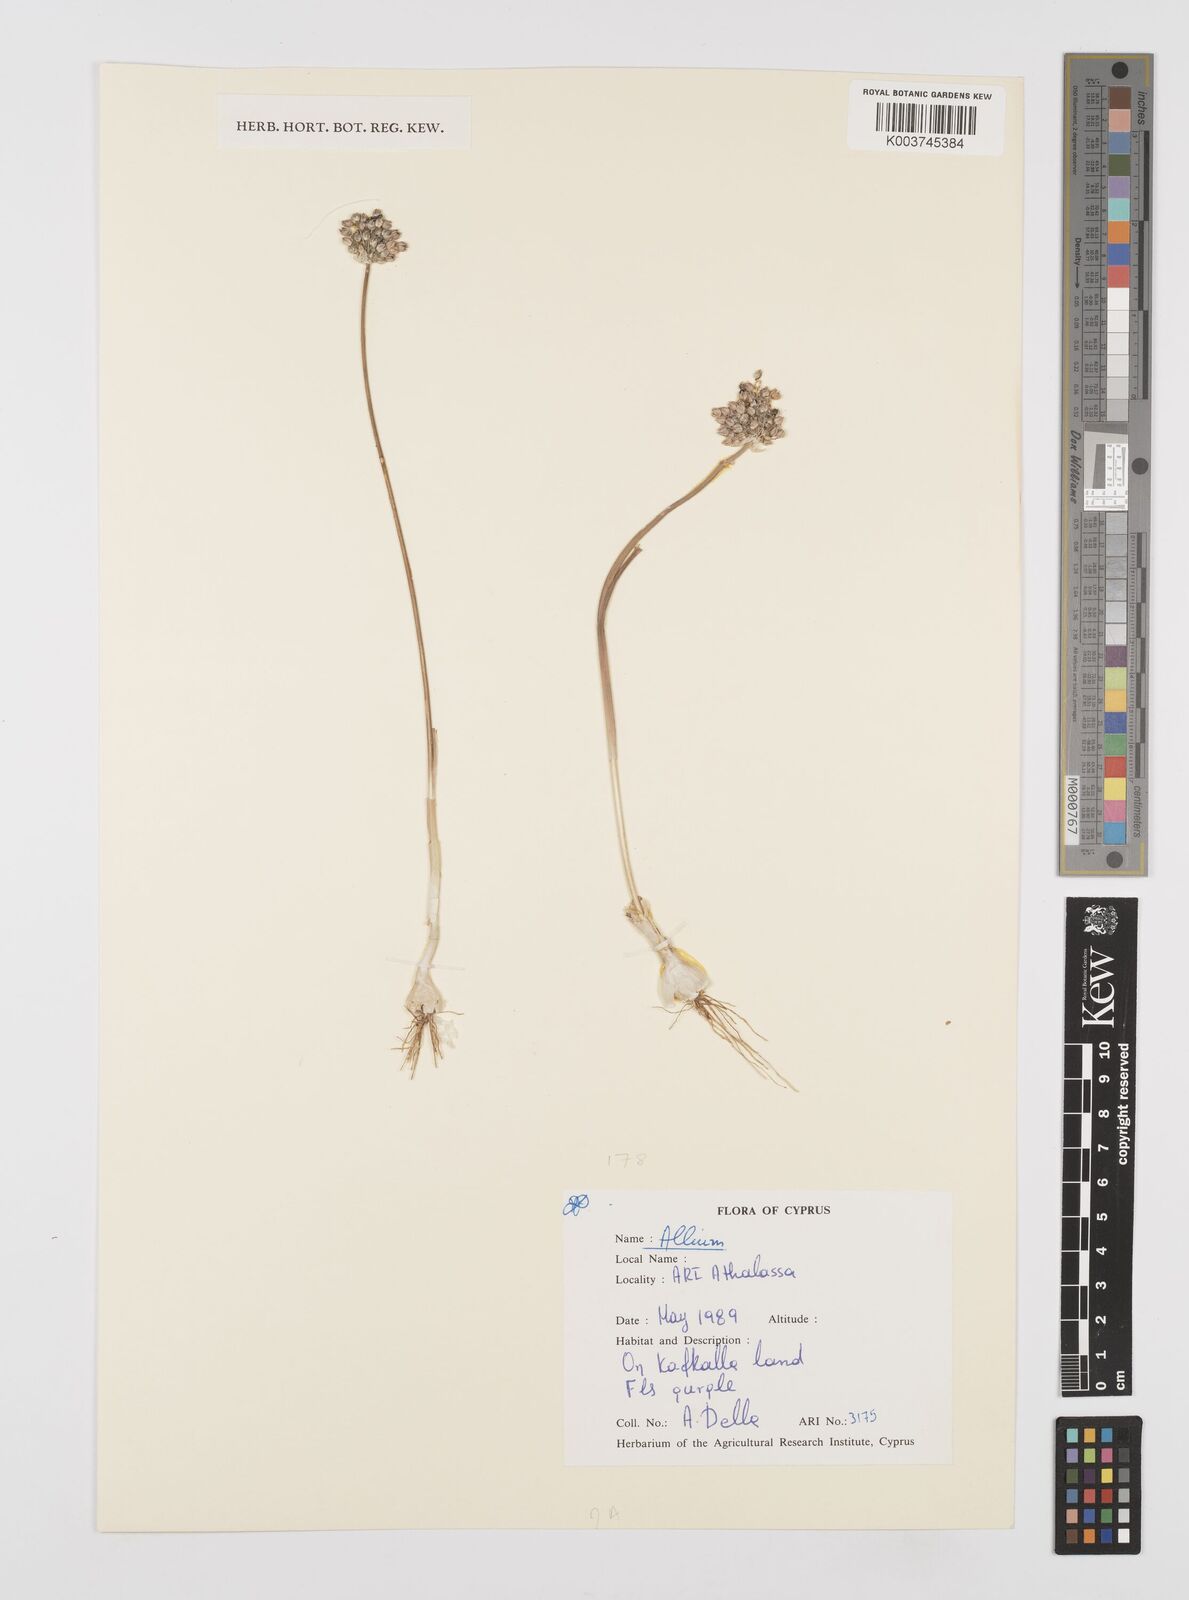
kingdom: Plantae
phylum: Tracheophyta
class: Liliopsida
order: Asparagales
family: Amaryllidaceae
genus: Allium
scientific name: Allium
